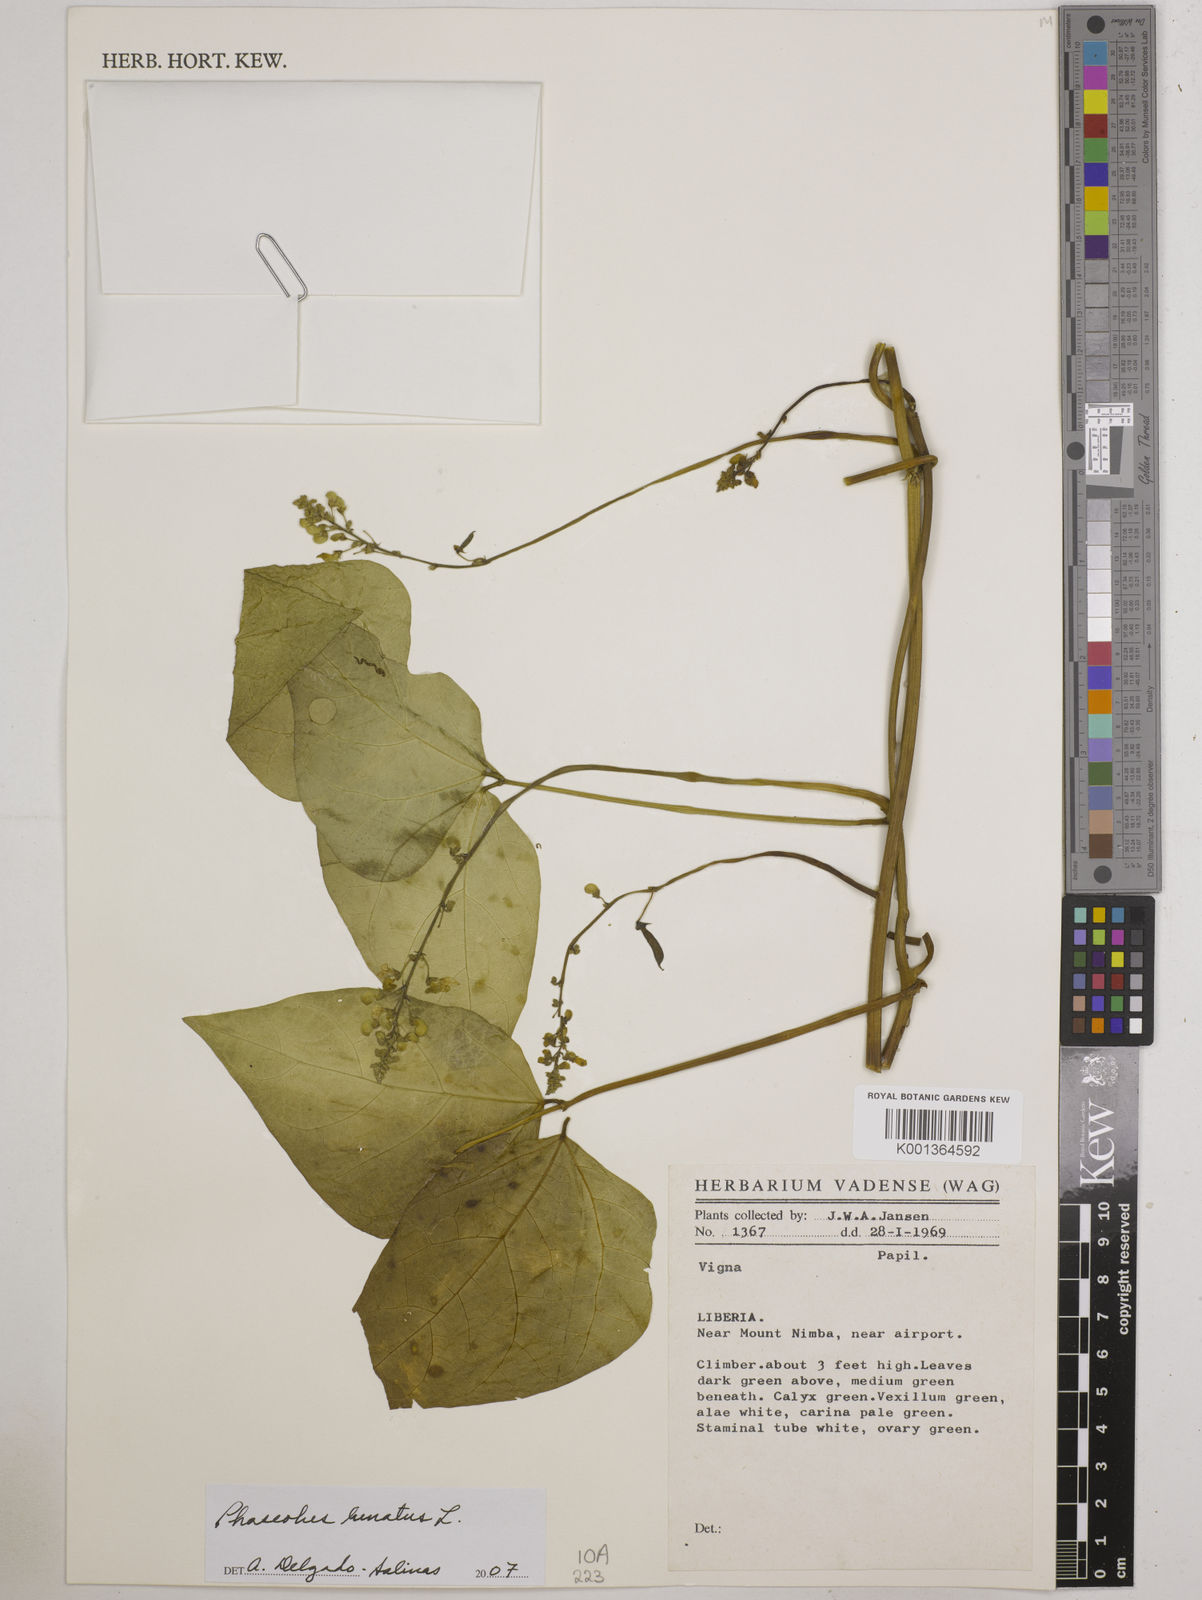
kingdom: Plantae
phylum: Tracheophyta
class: Magnoliopsida
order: Fabales
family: Fabaceae
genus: Phaseolus
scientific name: Phaseolus lunatus
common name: Sieva bean
